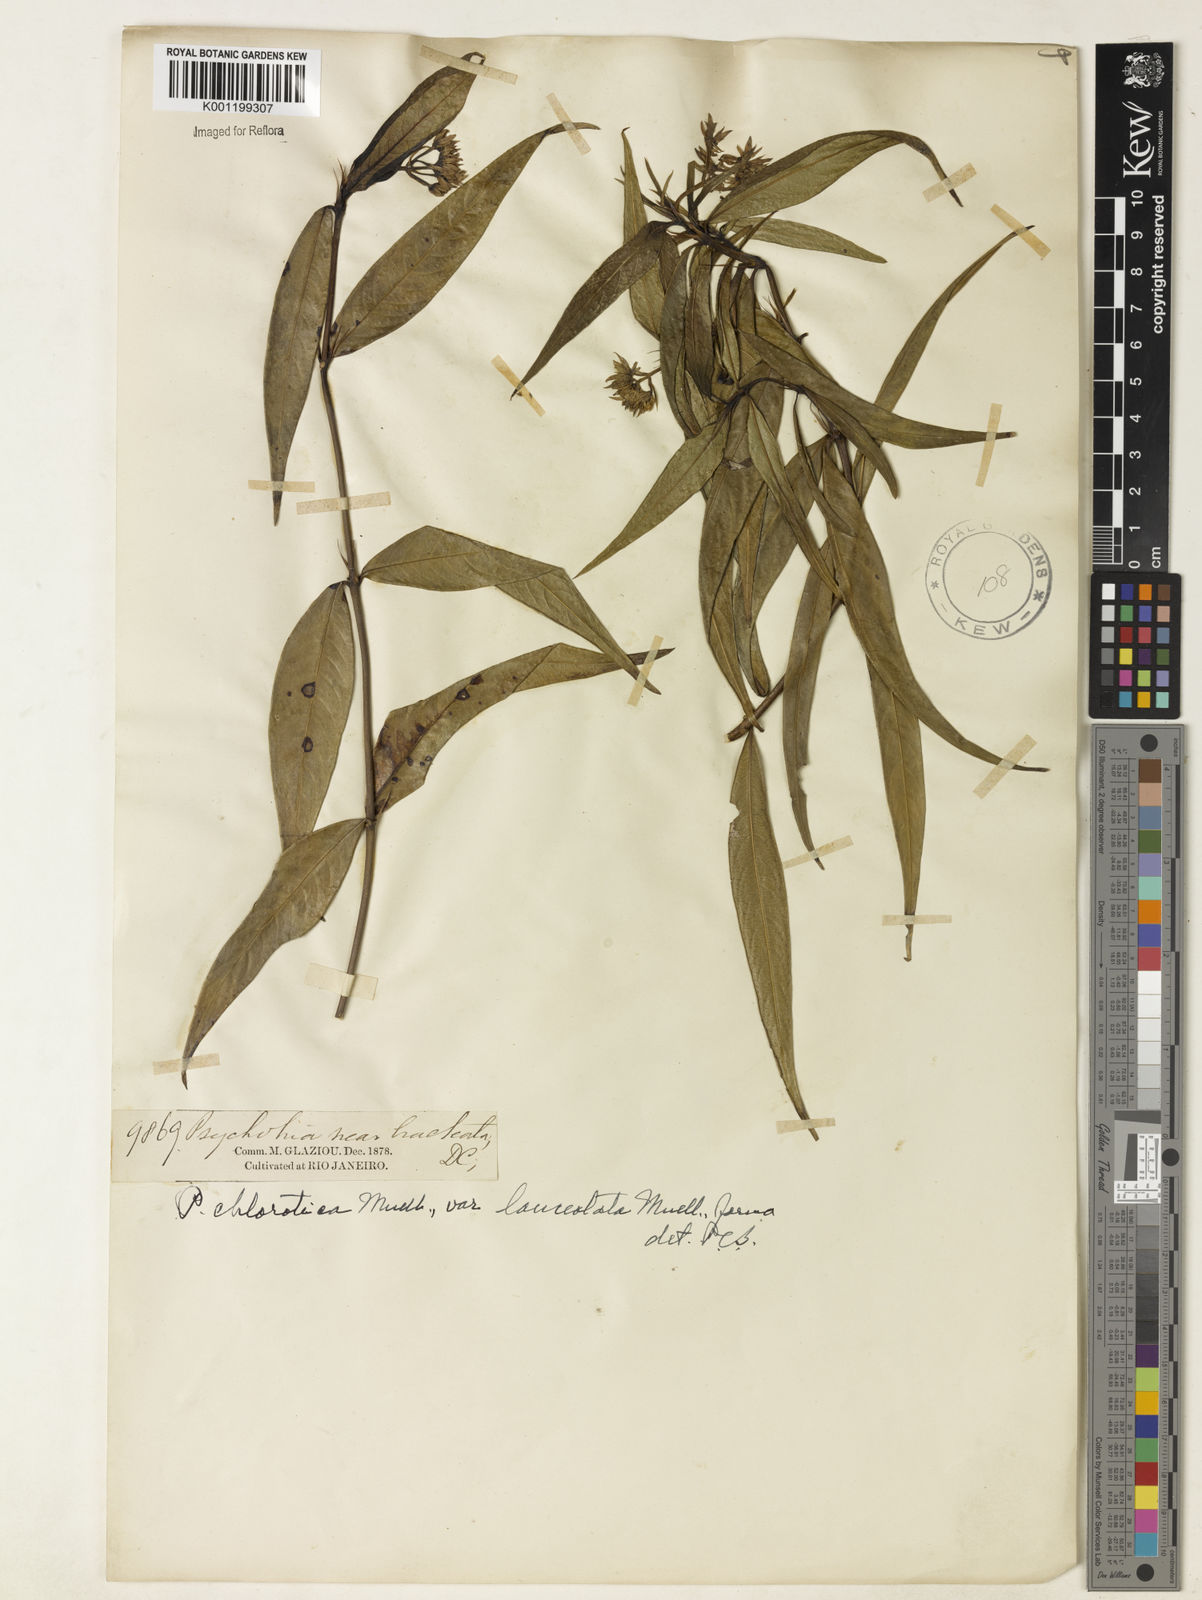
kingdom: Plantae
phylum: Tracheophyta
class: Magnoliopsida
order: Gentianales
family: Rubiaceae
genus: Palicourea
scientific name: Palicourea violacea
